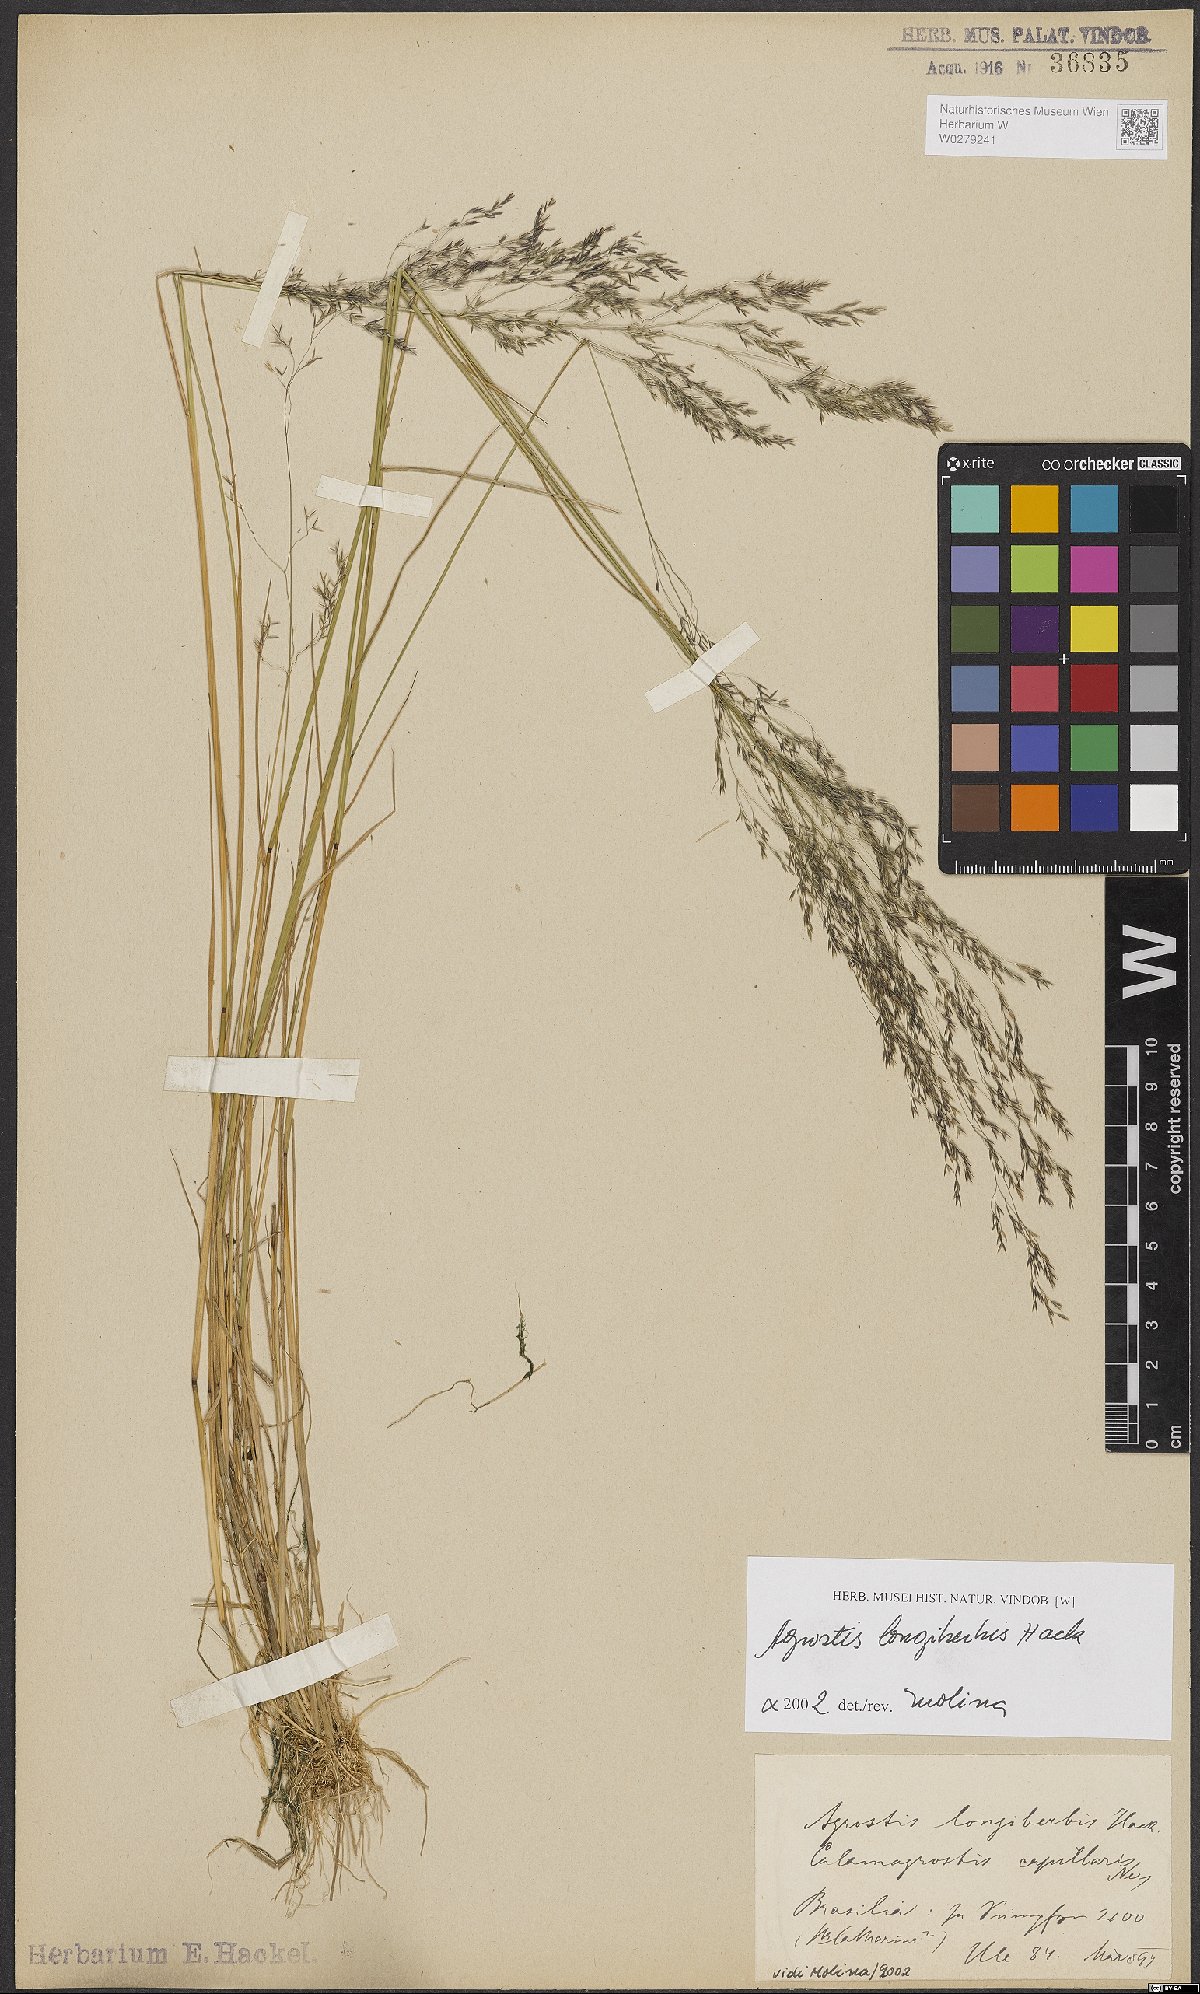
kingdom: Plantae
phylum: Tracheophyta
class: Liliopsida
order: Poales
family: Poaceae
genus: Agrostis
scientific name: Agrostis longiberbis
